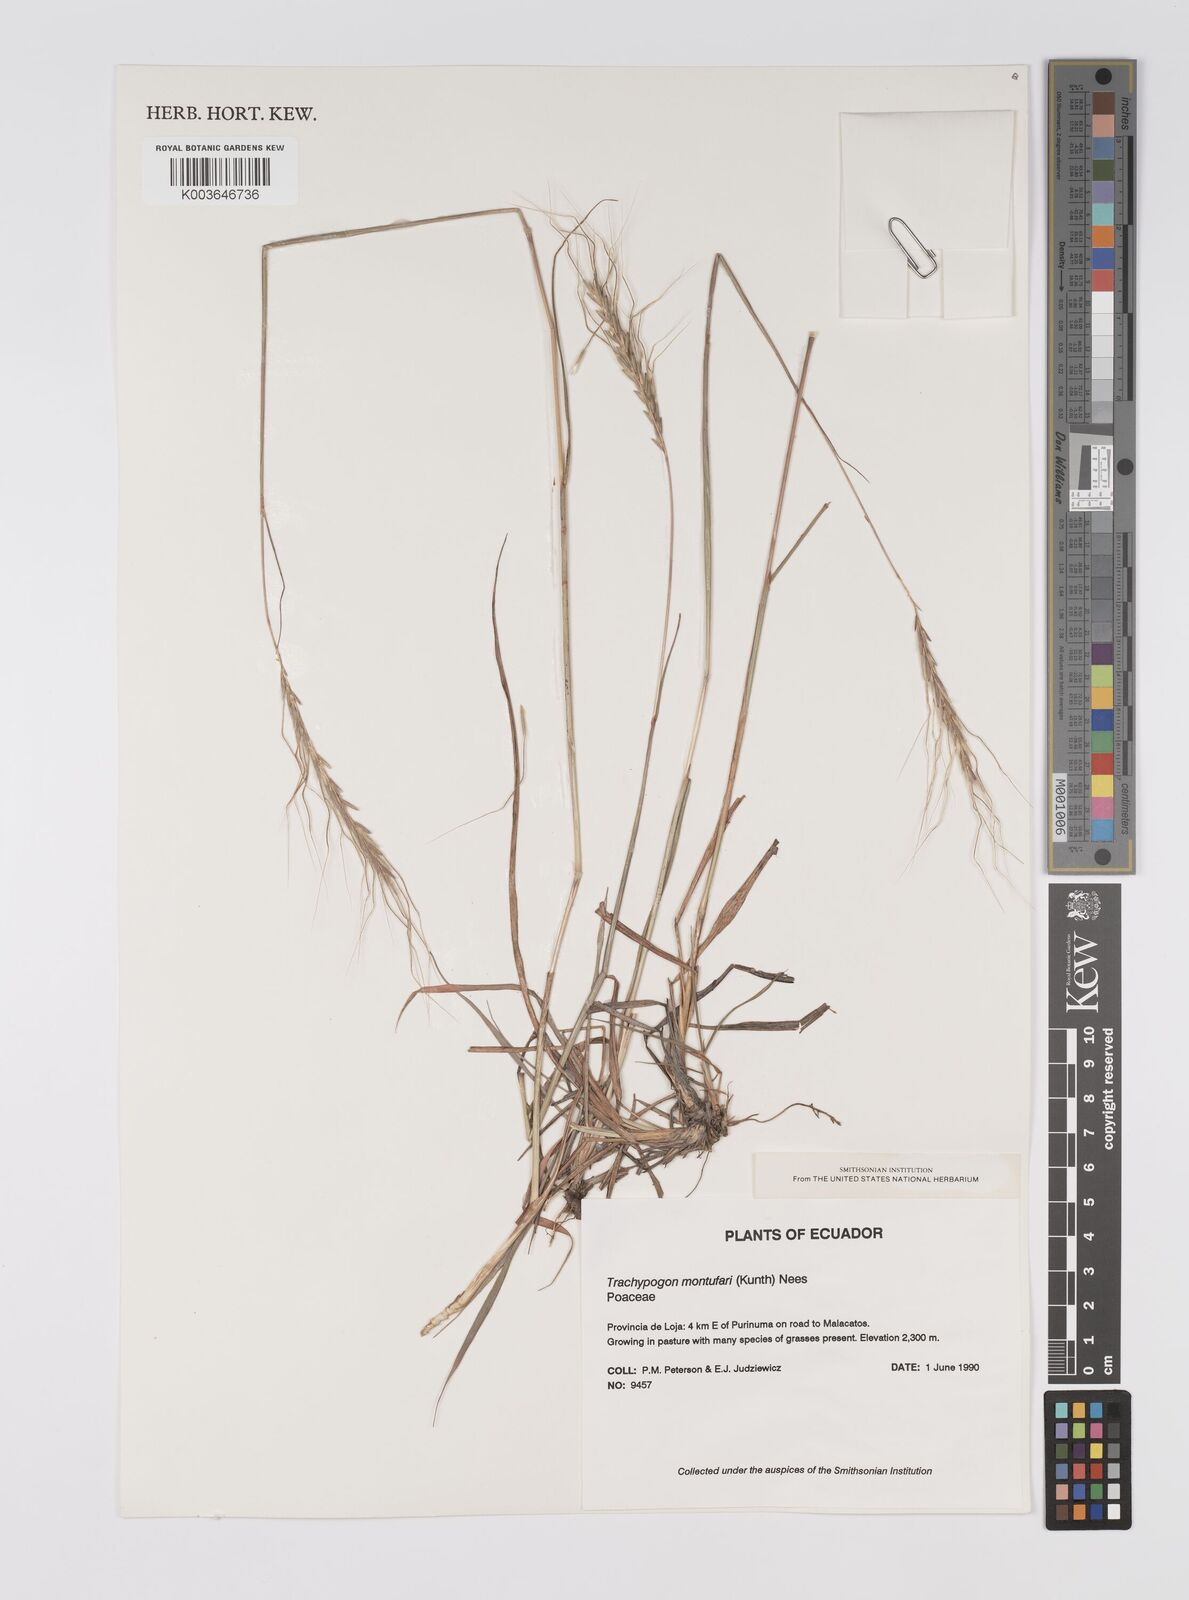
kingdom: Plantae
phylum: Tracheophyta
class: Liliopsida
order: Poales
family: Poaceae
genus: Trachypogon
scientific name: Trachypogon spicatus
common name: Crinkle-awn
